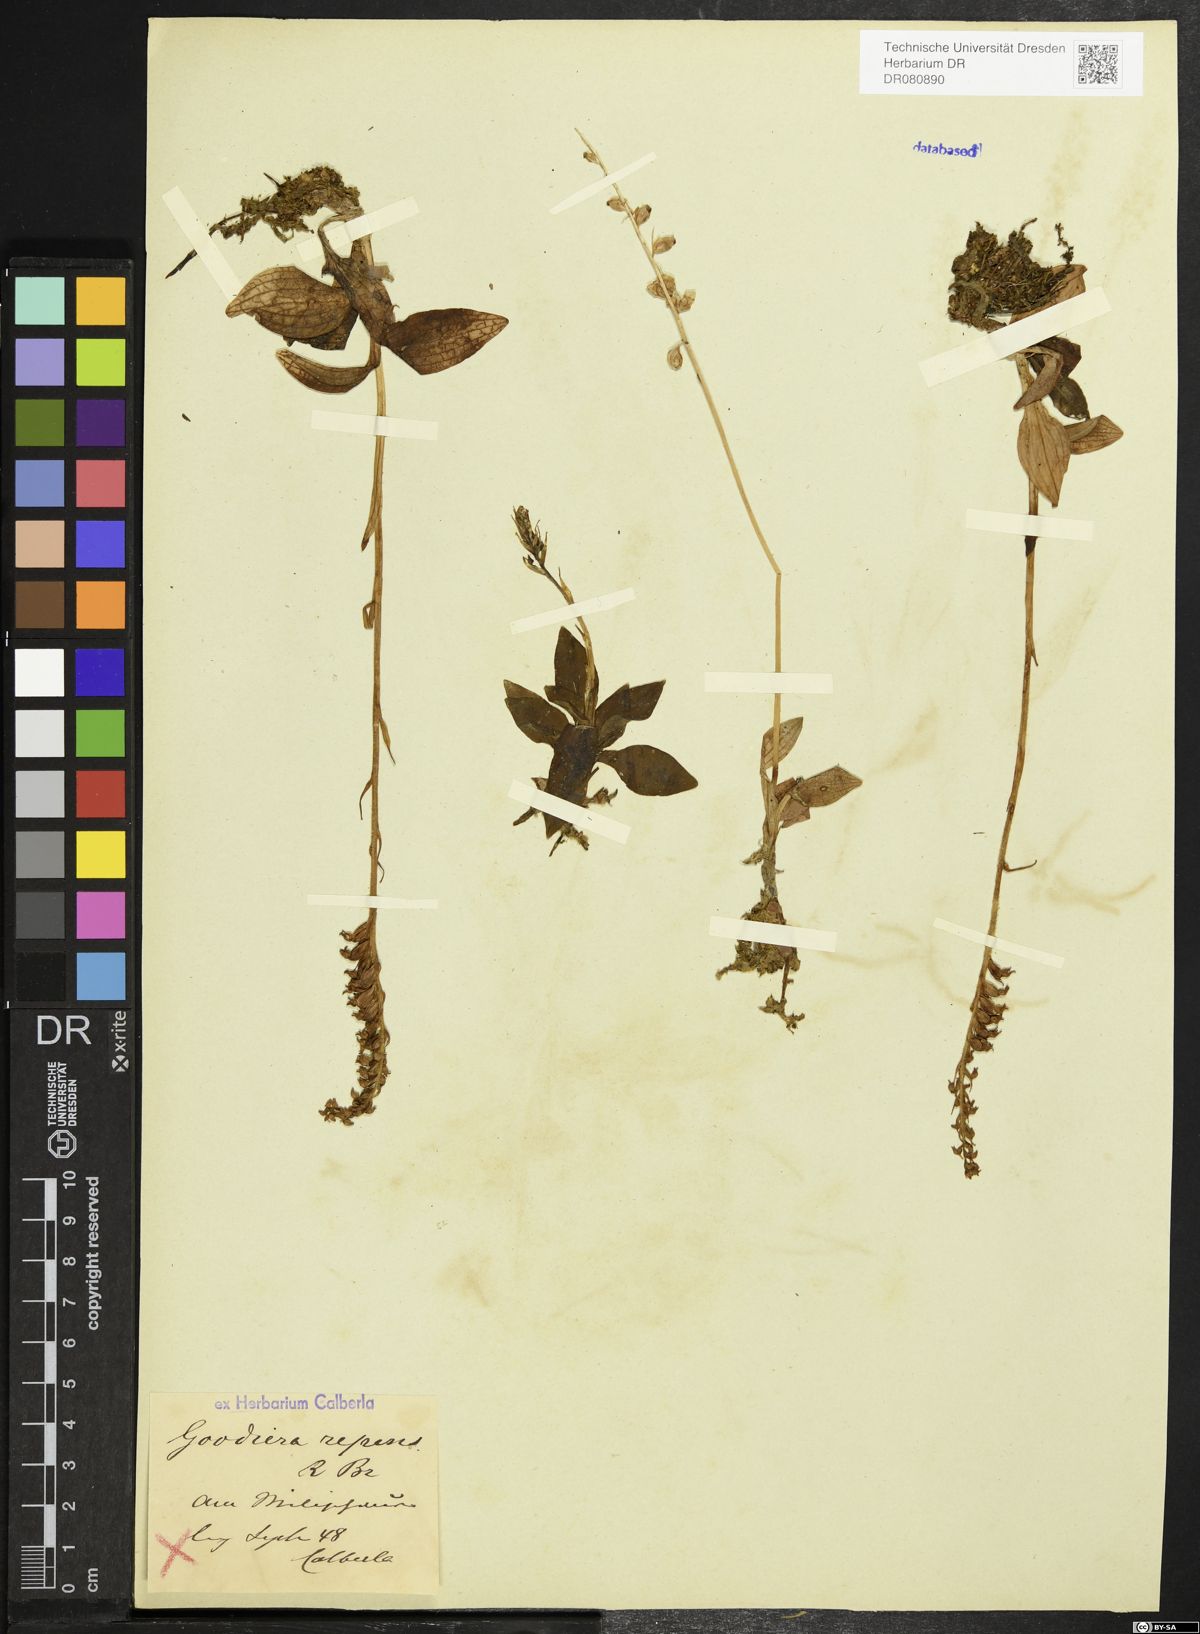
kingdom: Plantae
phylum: Tracheophyta
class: Liliopsida
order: Asparagales
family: Orchidaceae
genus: Goodyera
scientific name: Goodyera repens
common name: Creeping lady's-tresses
